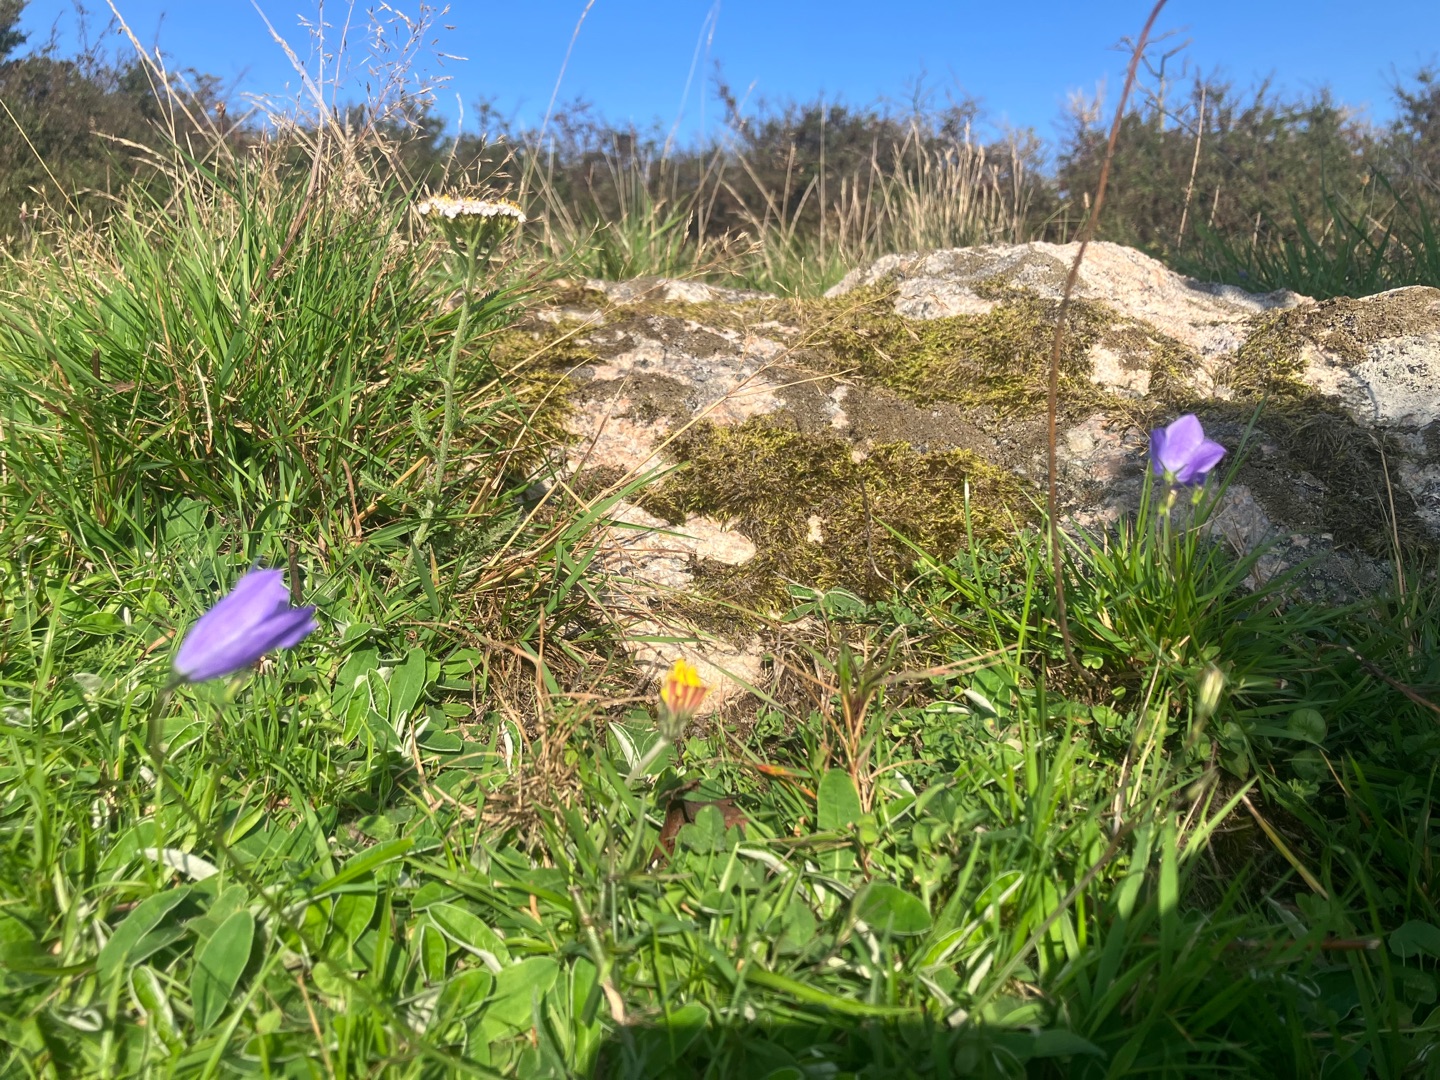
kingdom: Plantae
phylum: Tracheophyta
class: Magnoliopsida
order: Asterales
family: Campanulaceae
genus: Campanula
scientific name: Campanula rotundifolia
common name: Liden klokke
